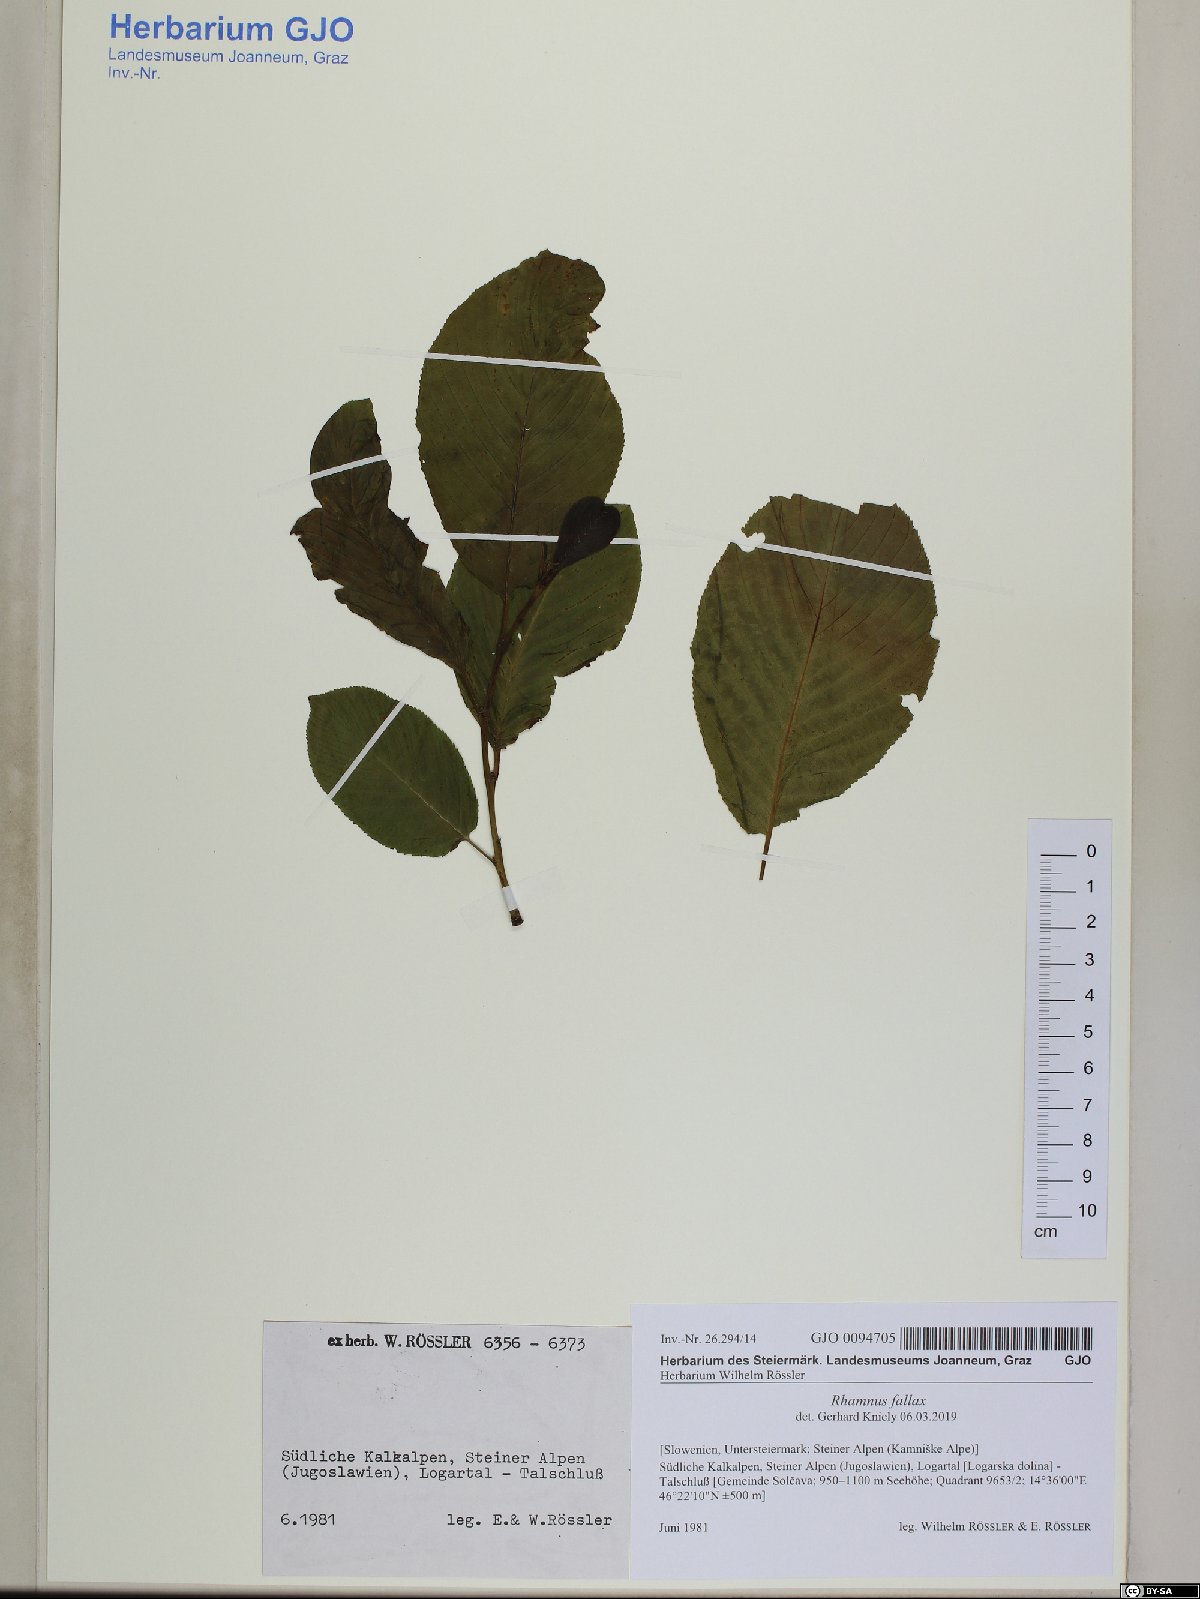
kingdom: Plantae
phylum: Tracheophyta
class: Magnoliopsida
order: Rosales
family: Rhamnaceae
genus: Atadinus
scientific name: Atadinus fallax
